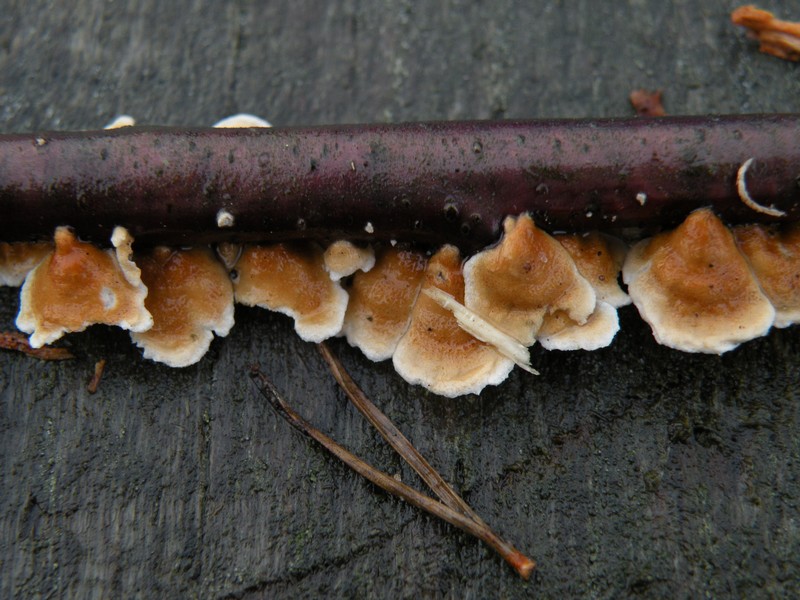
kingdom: Fungi
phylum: Basidiomycota
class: Agaricomycetes
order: Amylocorticiales
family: Amylocorticiaceae
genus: Plicaturopsis
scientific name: Plicaturopsis crispa
